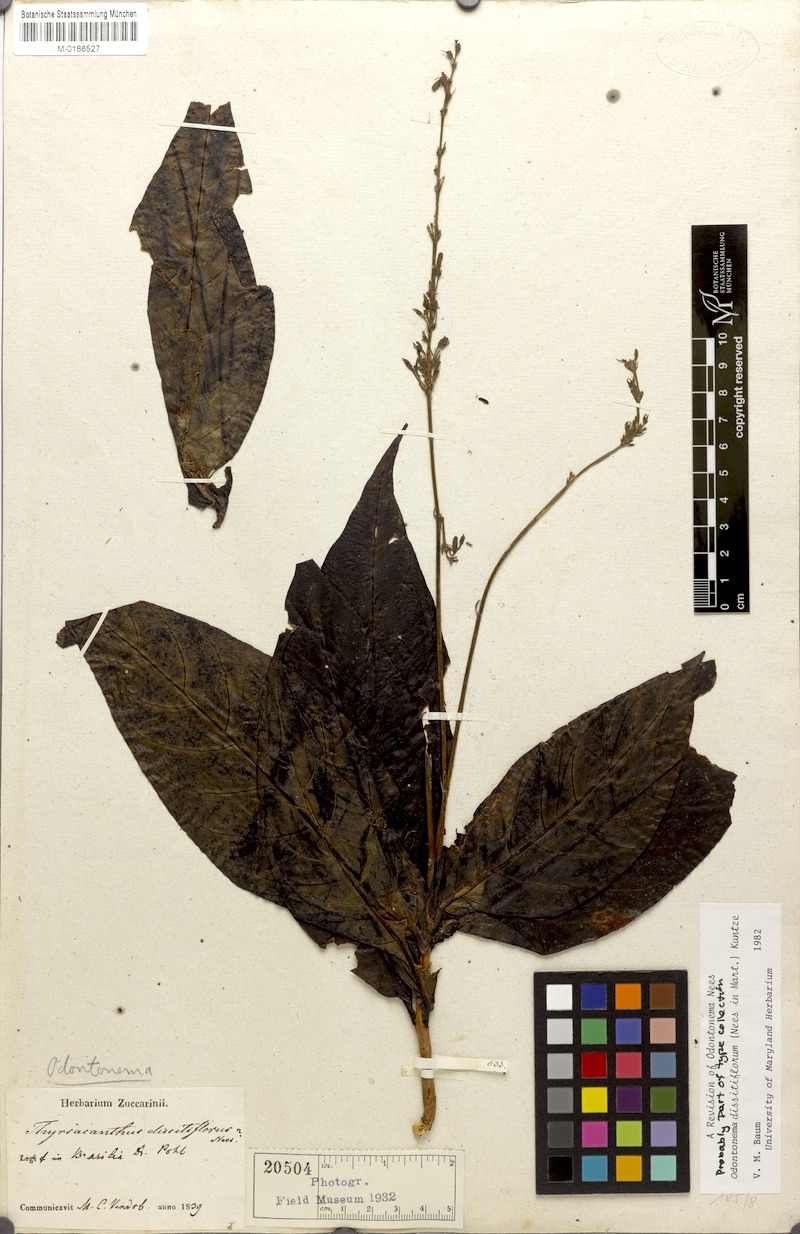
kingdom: Plantae
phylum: Tracheophyta
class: Magnoliopsida
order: Lamiales
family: Acanthaceae
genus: Odontonema
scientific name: Odontonema dissitiflorum
